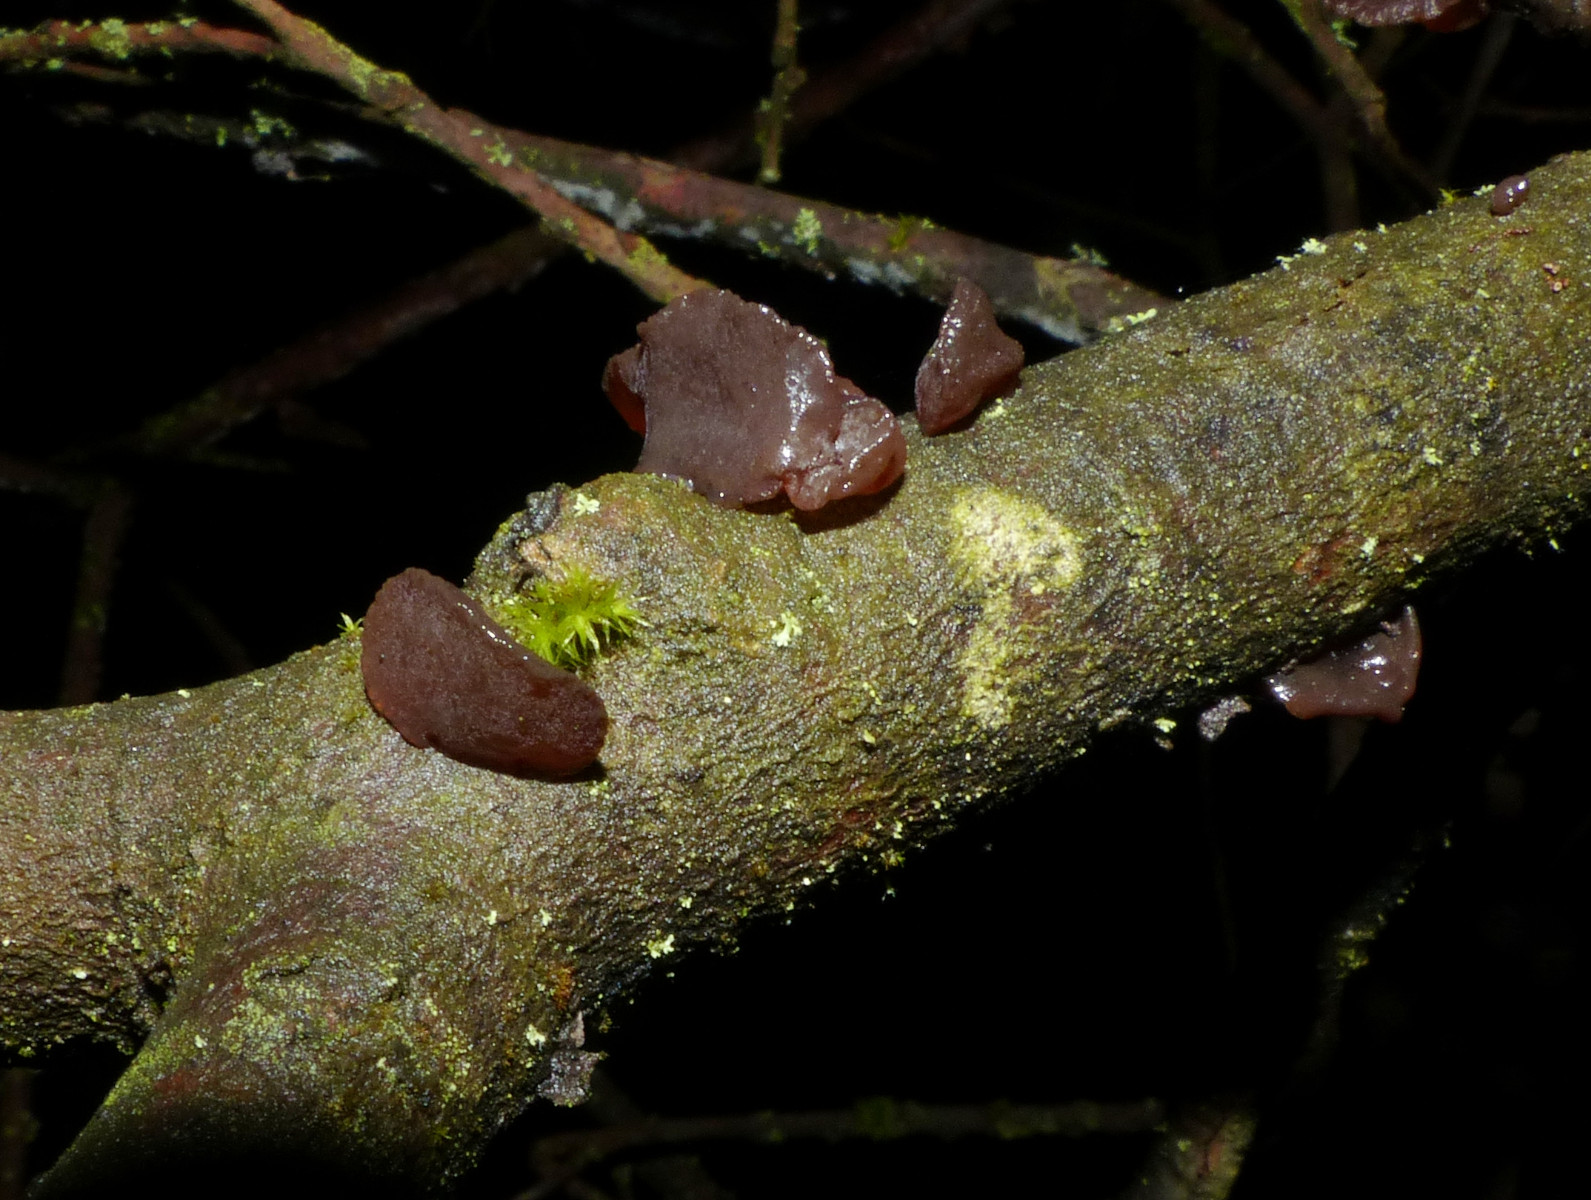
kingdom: Fungi
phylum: Basidiomycota
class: Agaricomycetes
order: Auriculariales
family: Auriculariaceae
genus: Exidia
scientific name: Exidia recisa
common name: pile-bævretop
